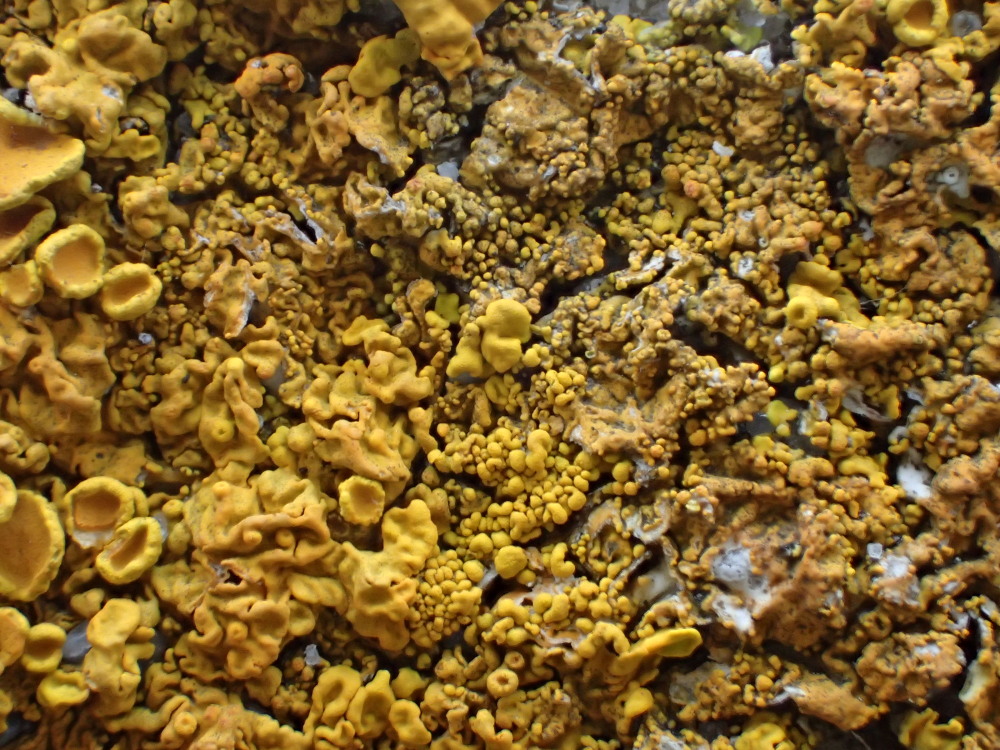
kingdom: Fungi
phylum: Ascomycota
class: Lecanoromycetes
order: Teloschistales
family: Teloschistaceae
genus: Xanthoria
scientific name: Xanthoria calcicola
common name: vortet væggelav
